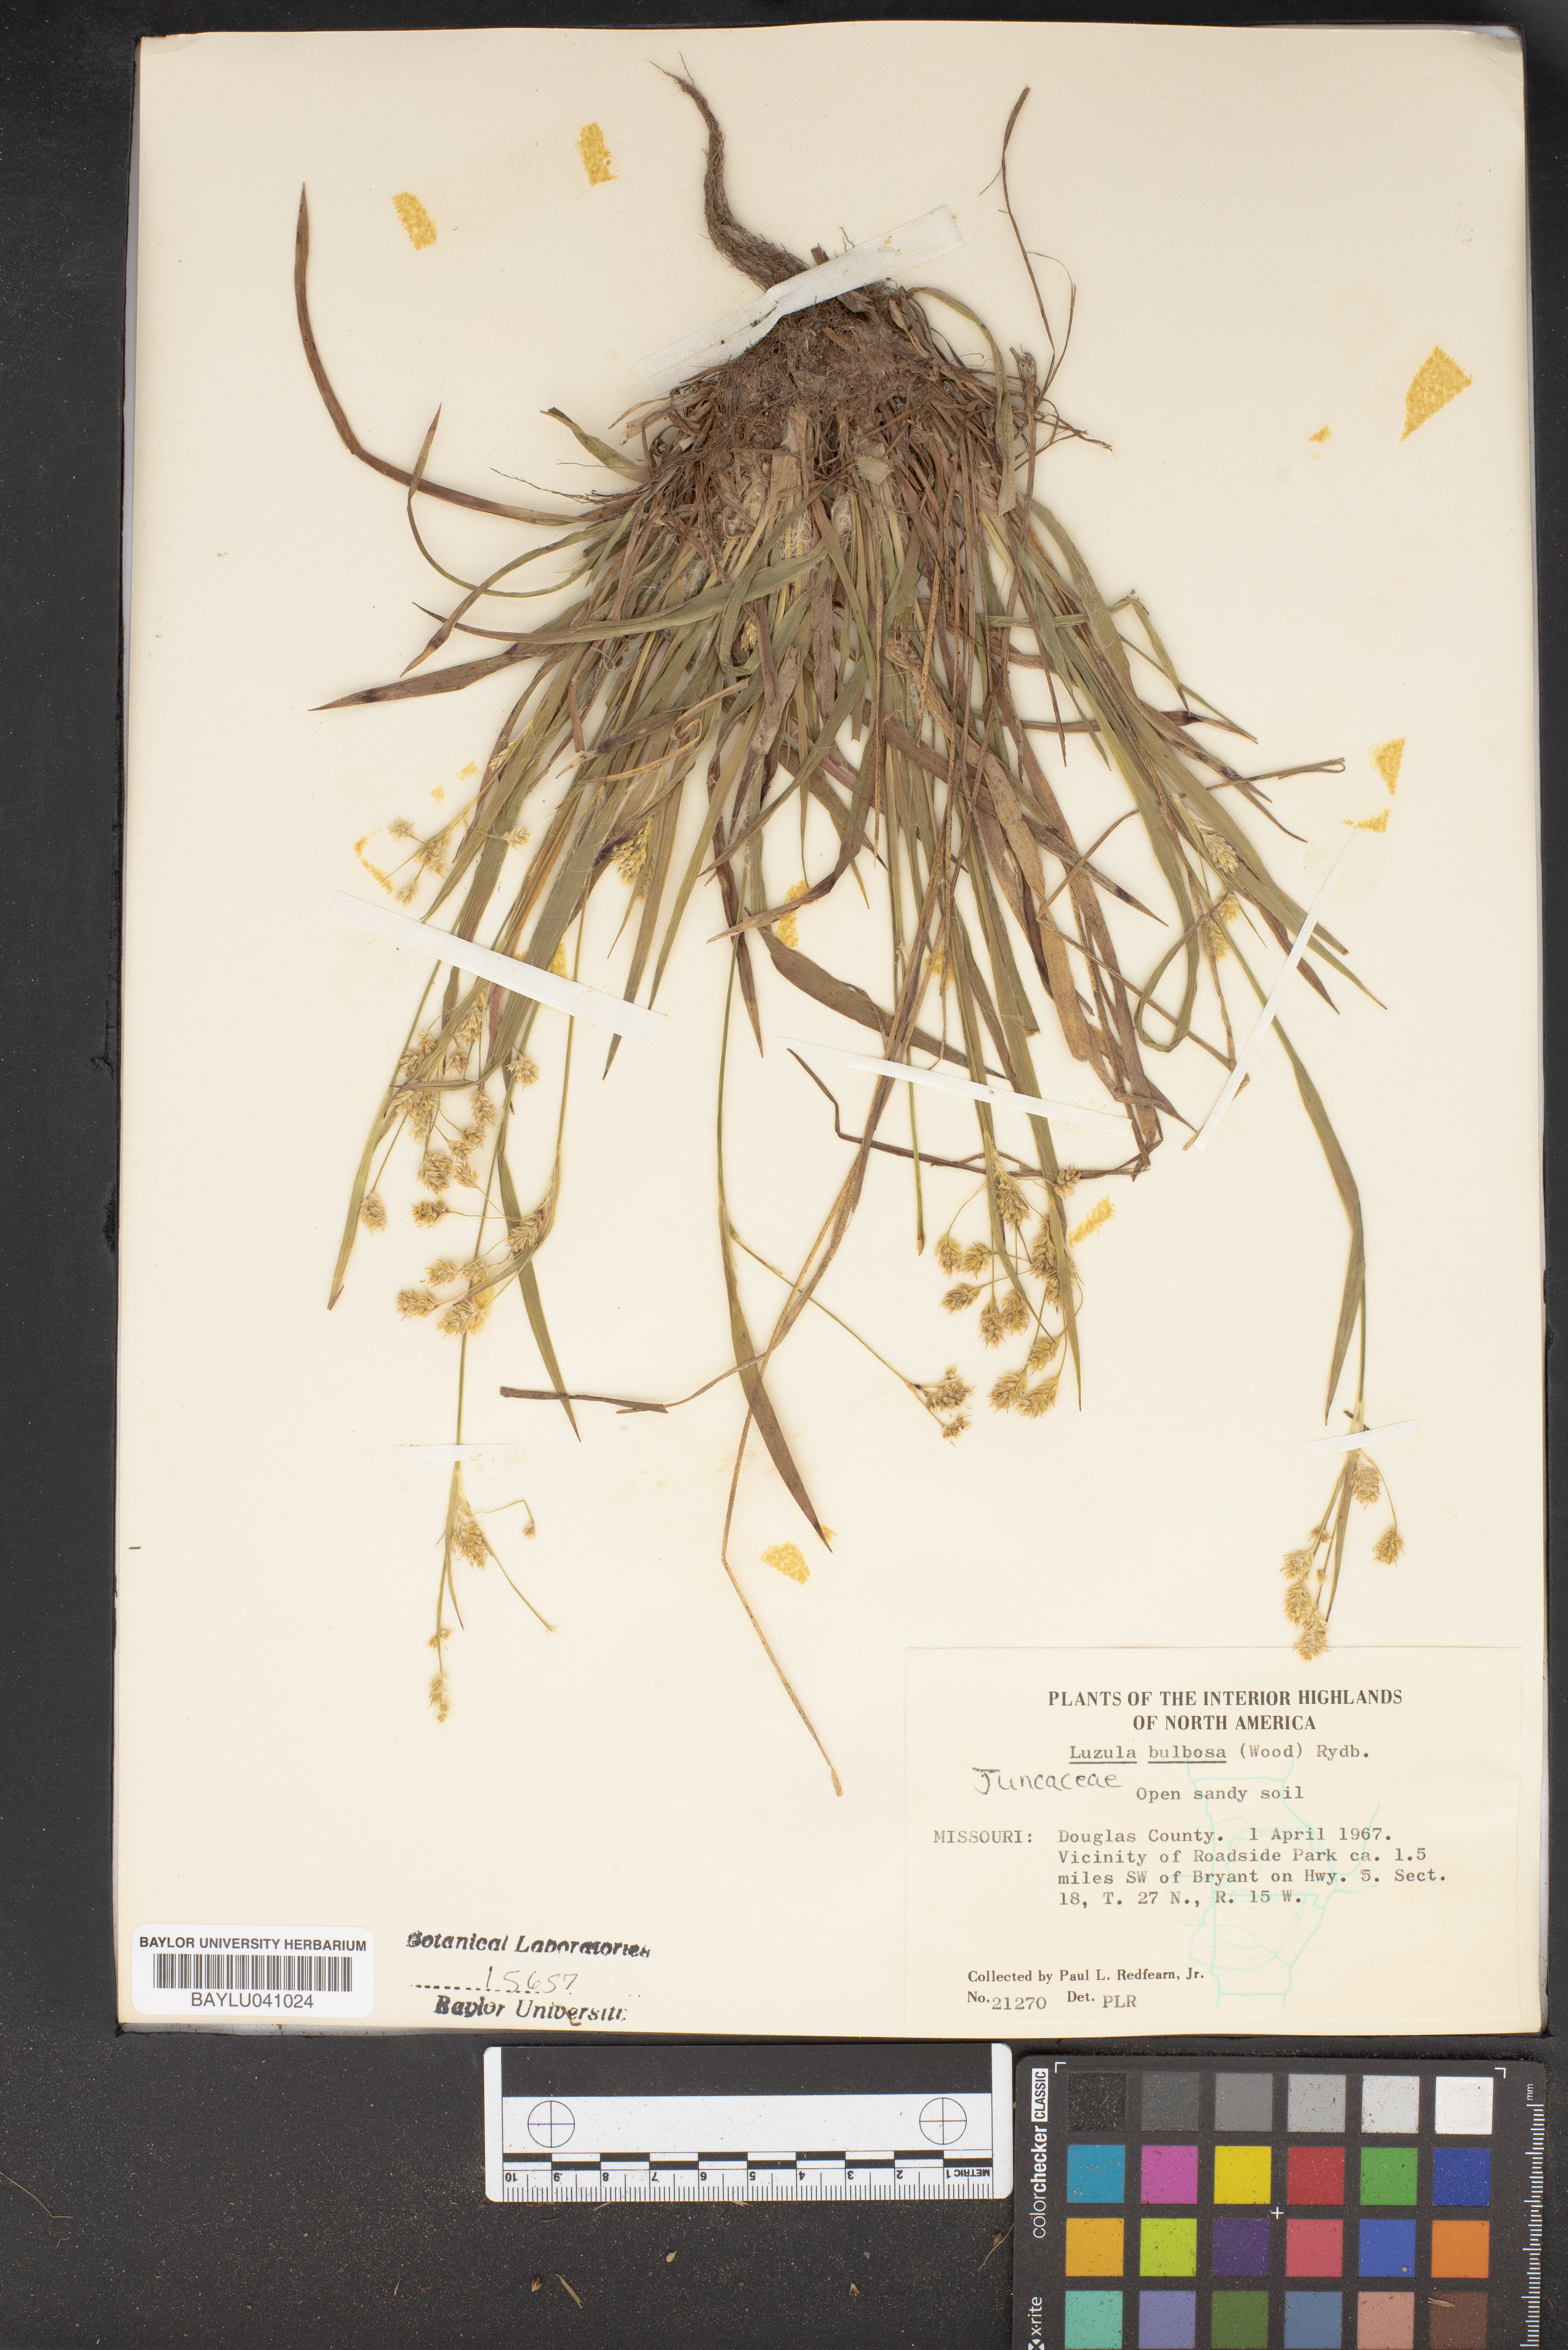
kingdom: Plantae
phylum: Tracheophyta
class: Liliopsida
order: Poales
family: Juncaceae
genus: Luzula
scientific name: Luzula bulbosa
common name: Bulbous woodrush
